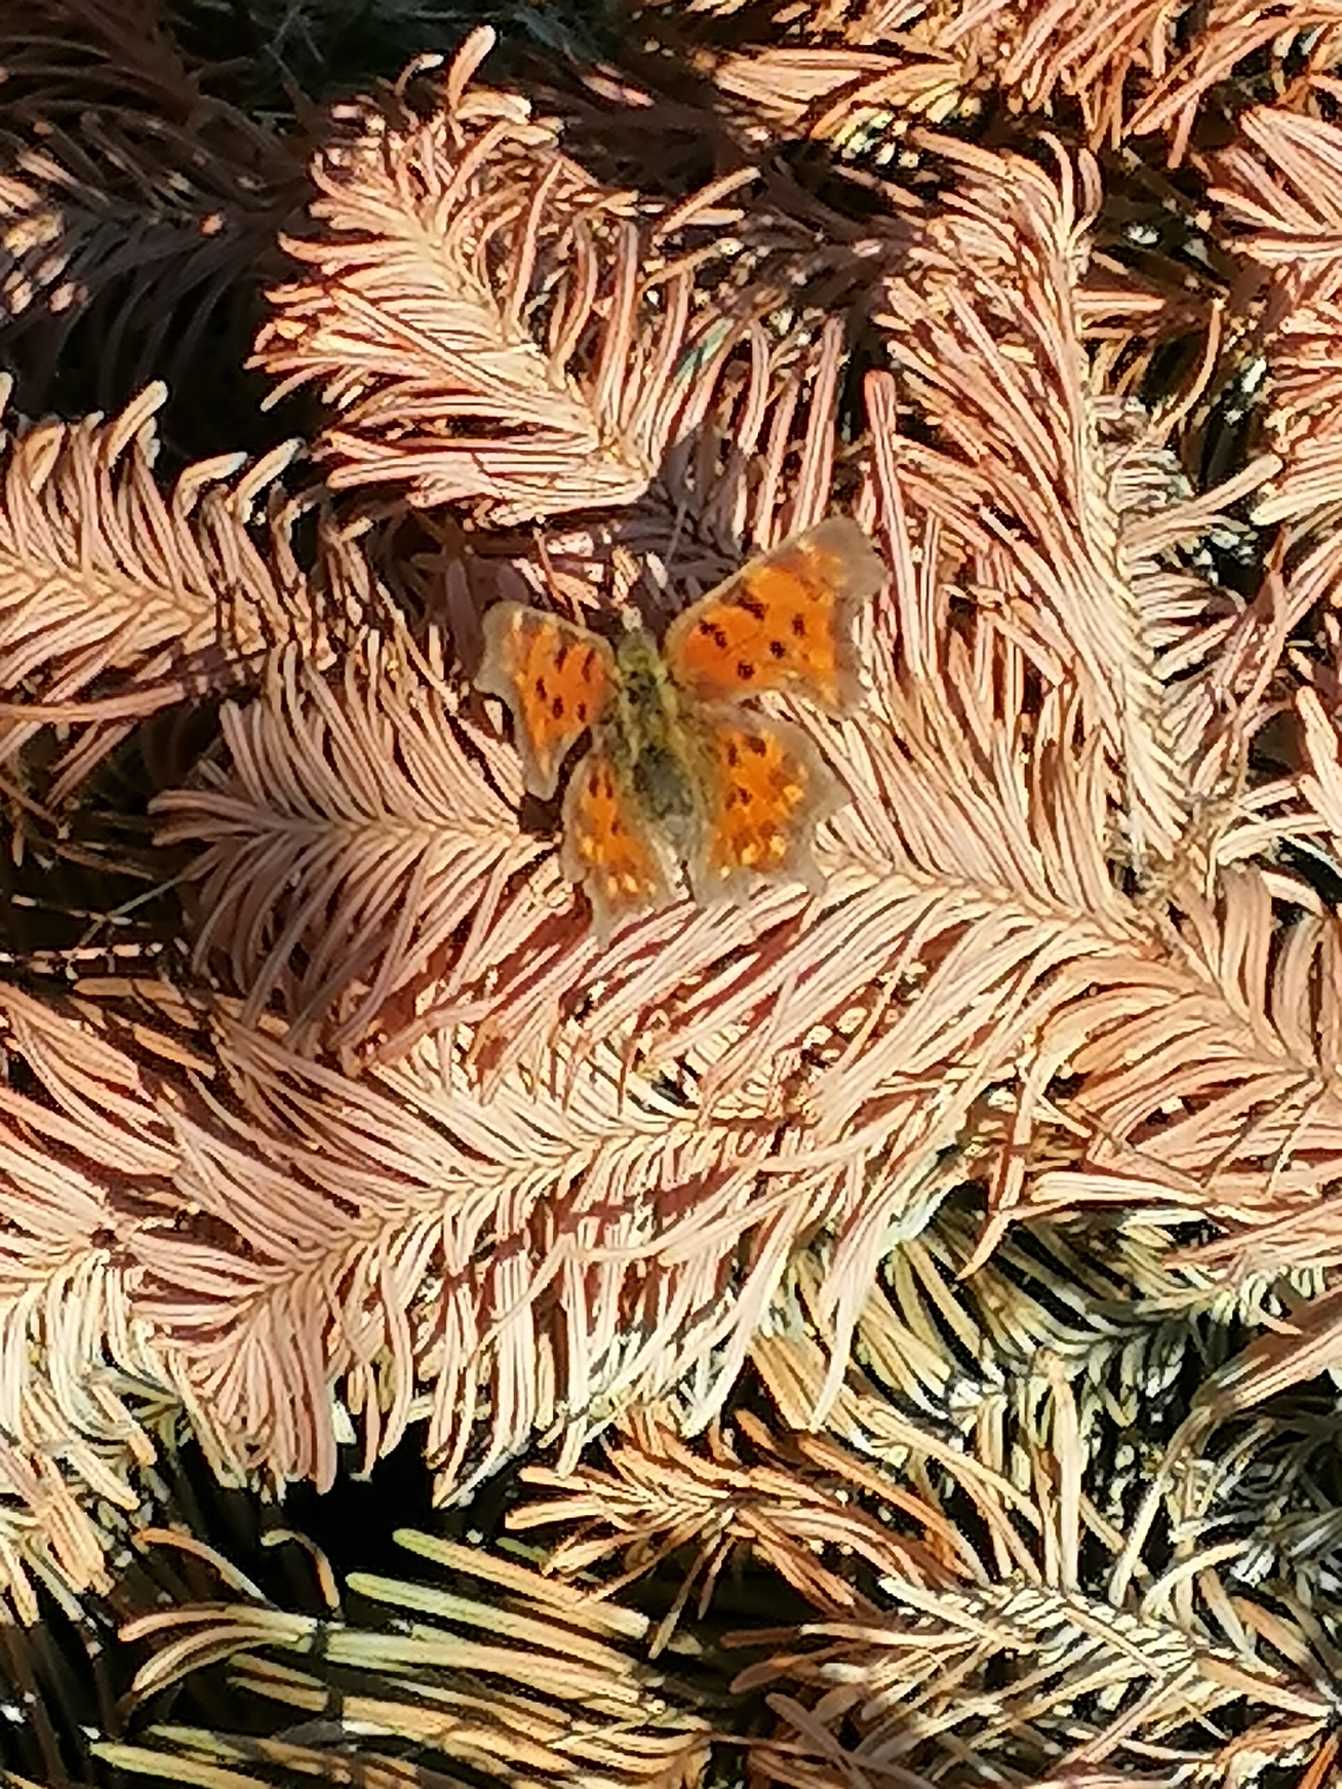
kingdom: Animalia
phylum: Arthropoda
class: Insecta
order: Lepidoptera
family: Nymphalidae
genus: Polygonia
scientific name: Polygonia c-album
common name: Det hvide C
